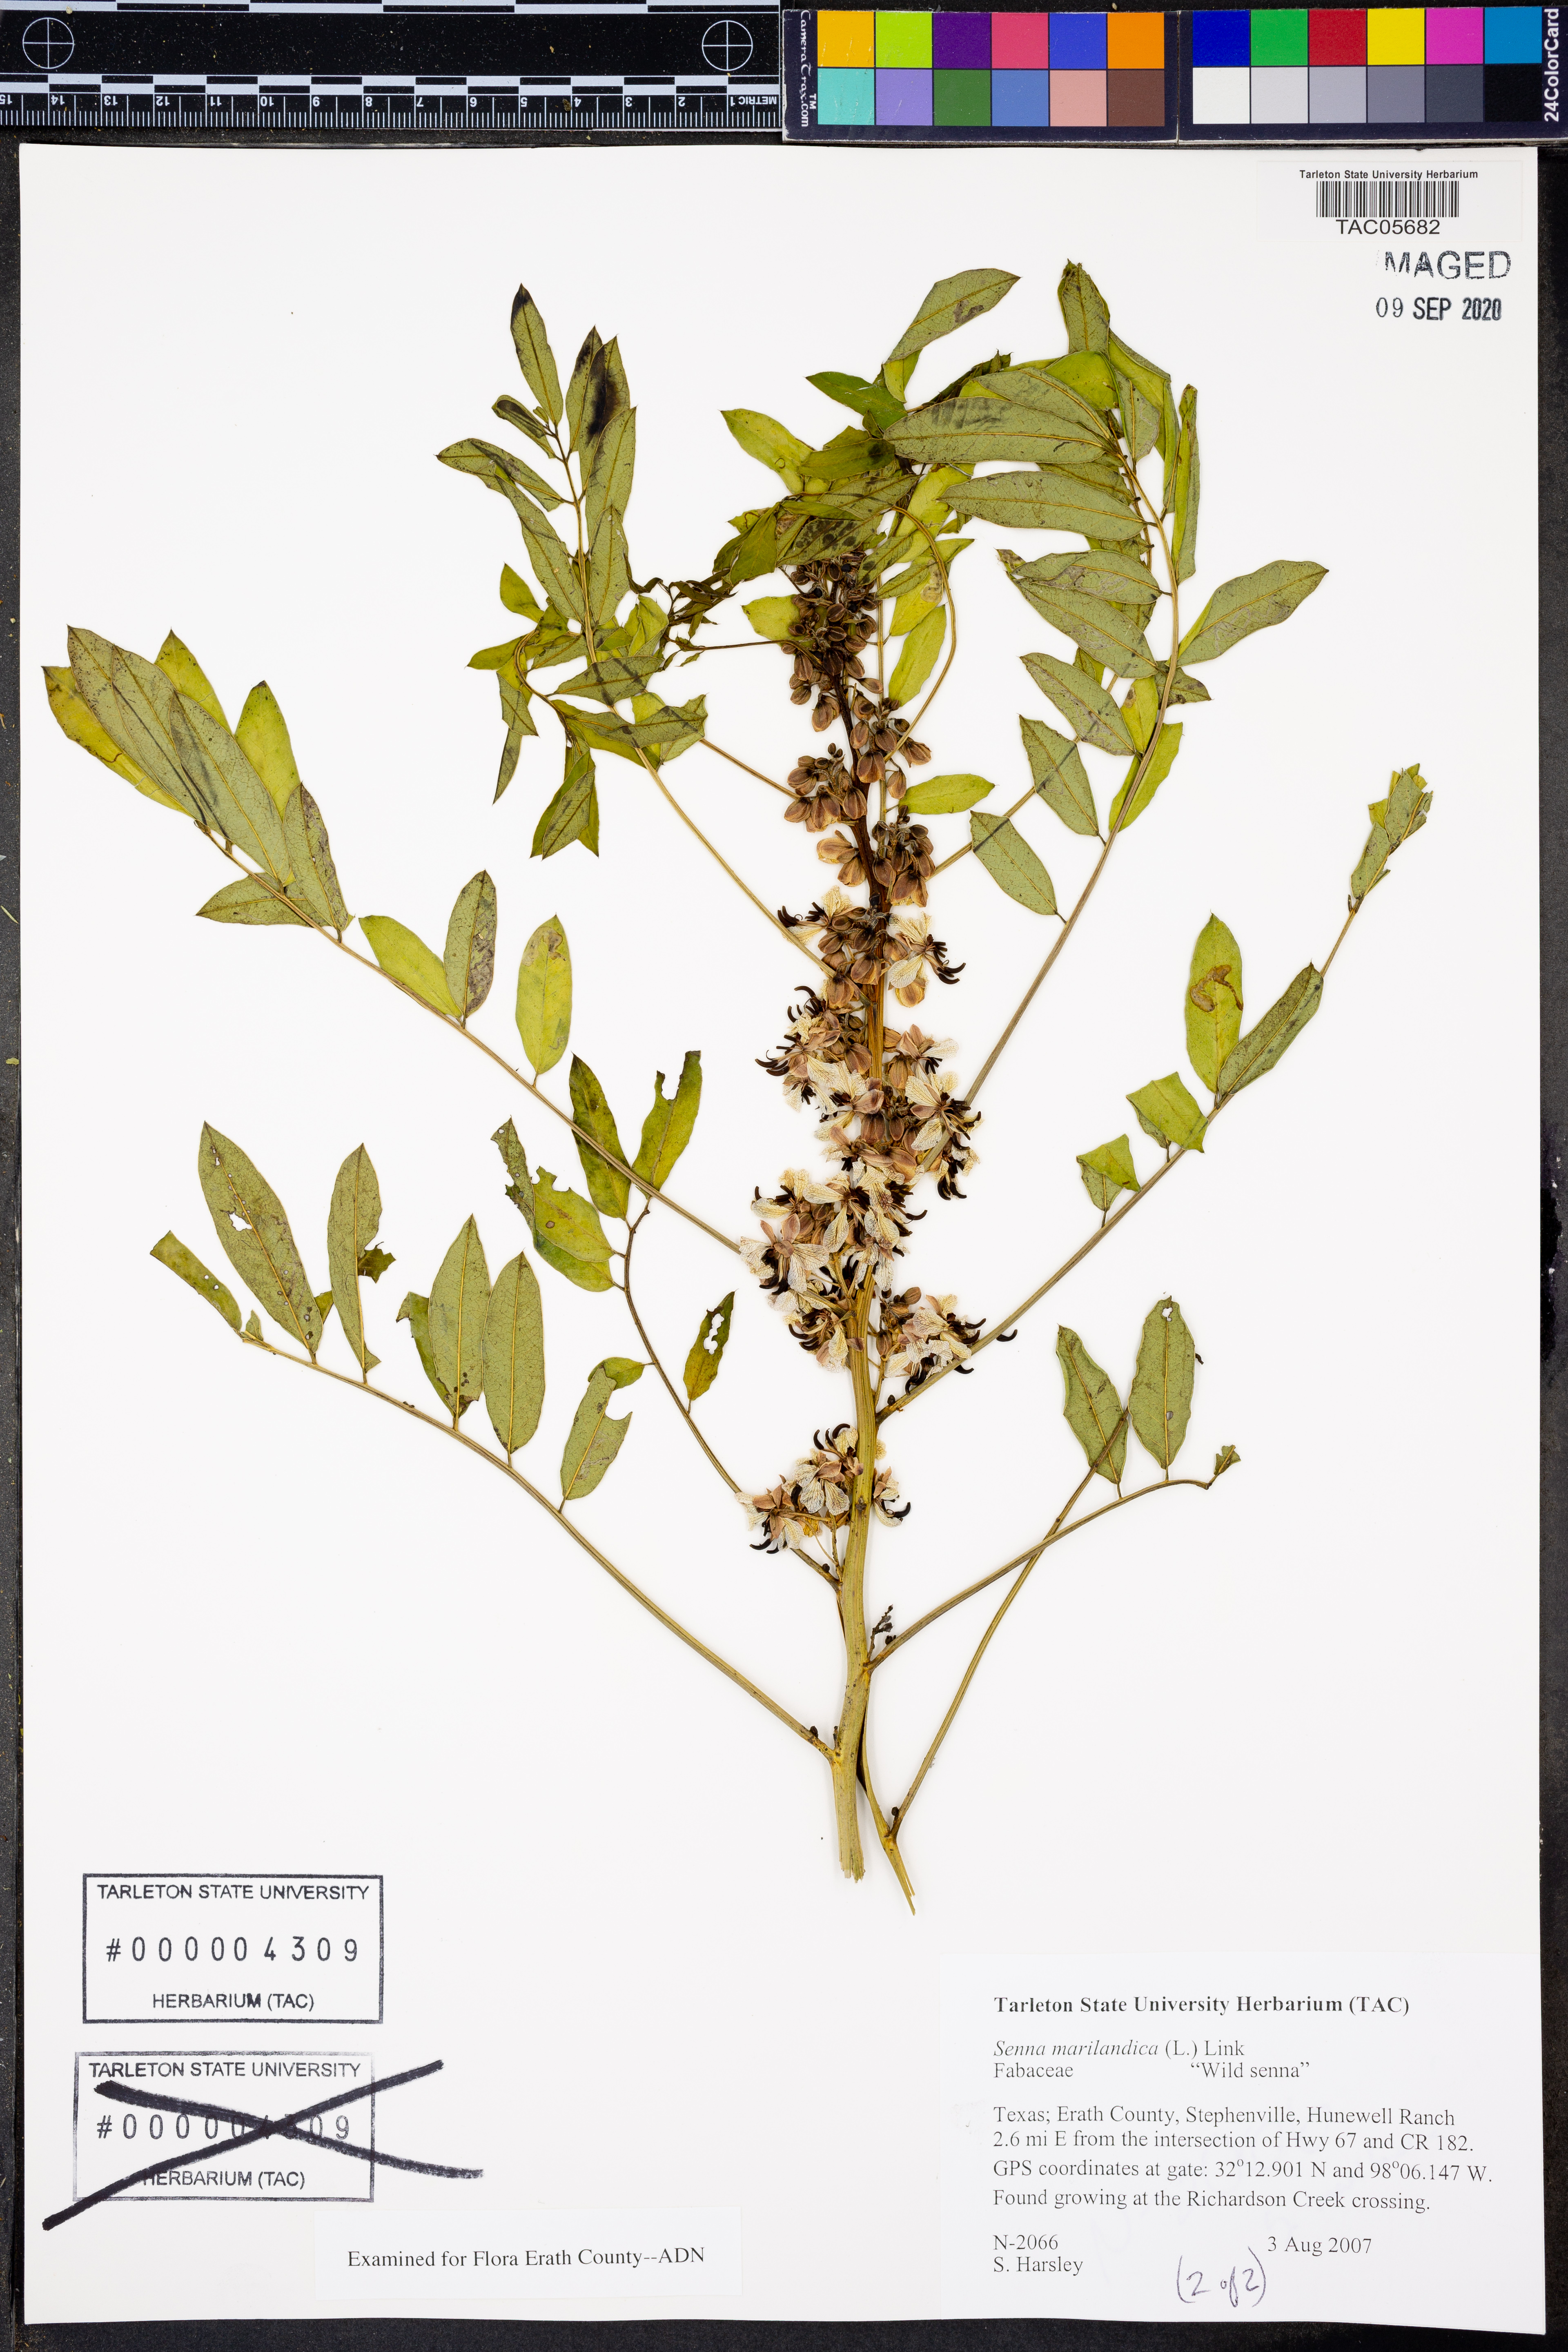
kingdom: Plantae
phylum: Tracheophyta
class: Magnoliopsida
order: Fabales
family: Fabaceae
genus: Senna
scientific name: Senna marilandica
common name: American senna
